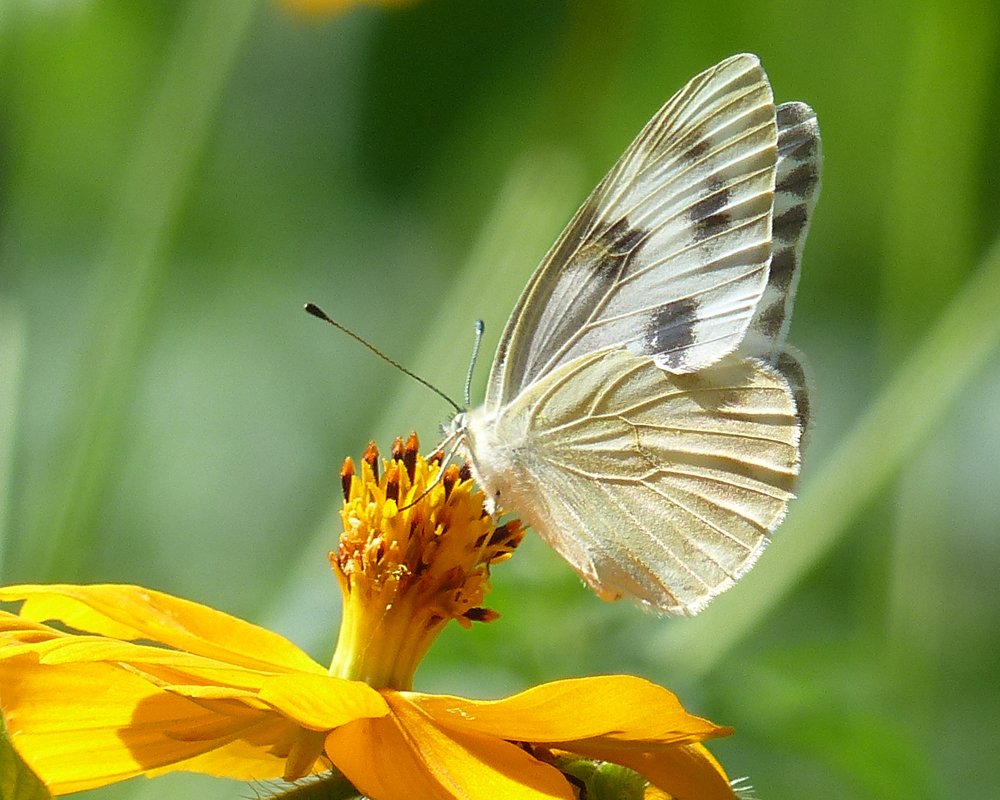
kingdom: Animalia
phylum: Arthropoda
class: Insecta
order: Lepidoptera
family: Pieridae
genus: Pontia
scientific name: Pontia protodice
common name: Checkered White
